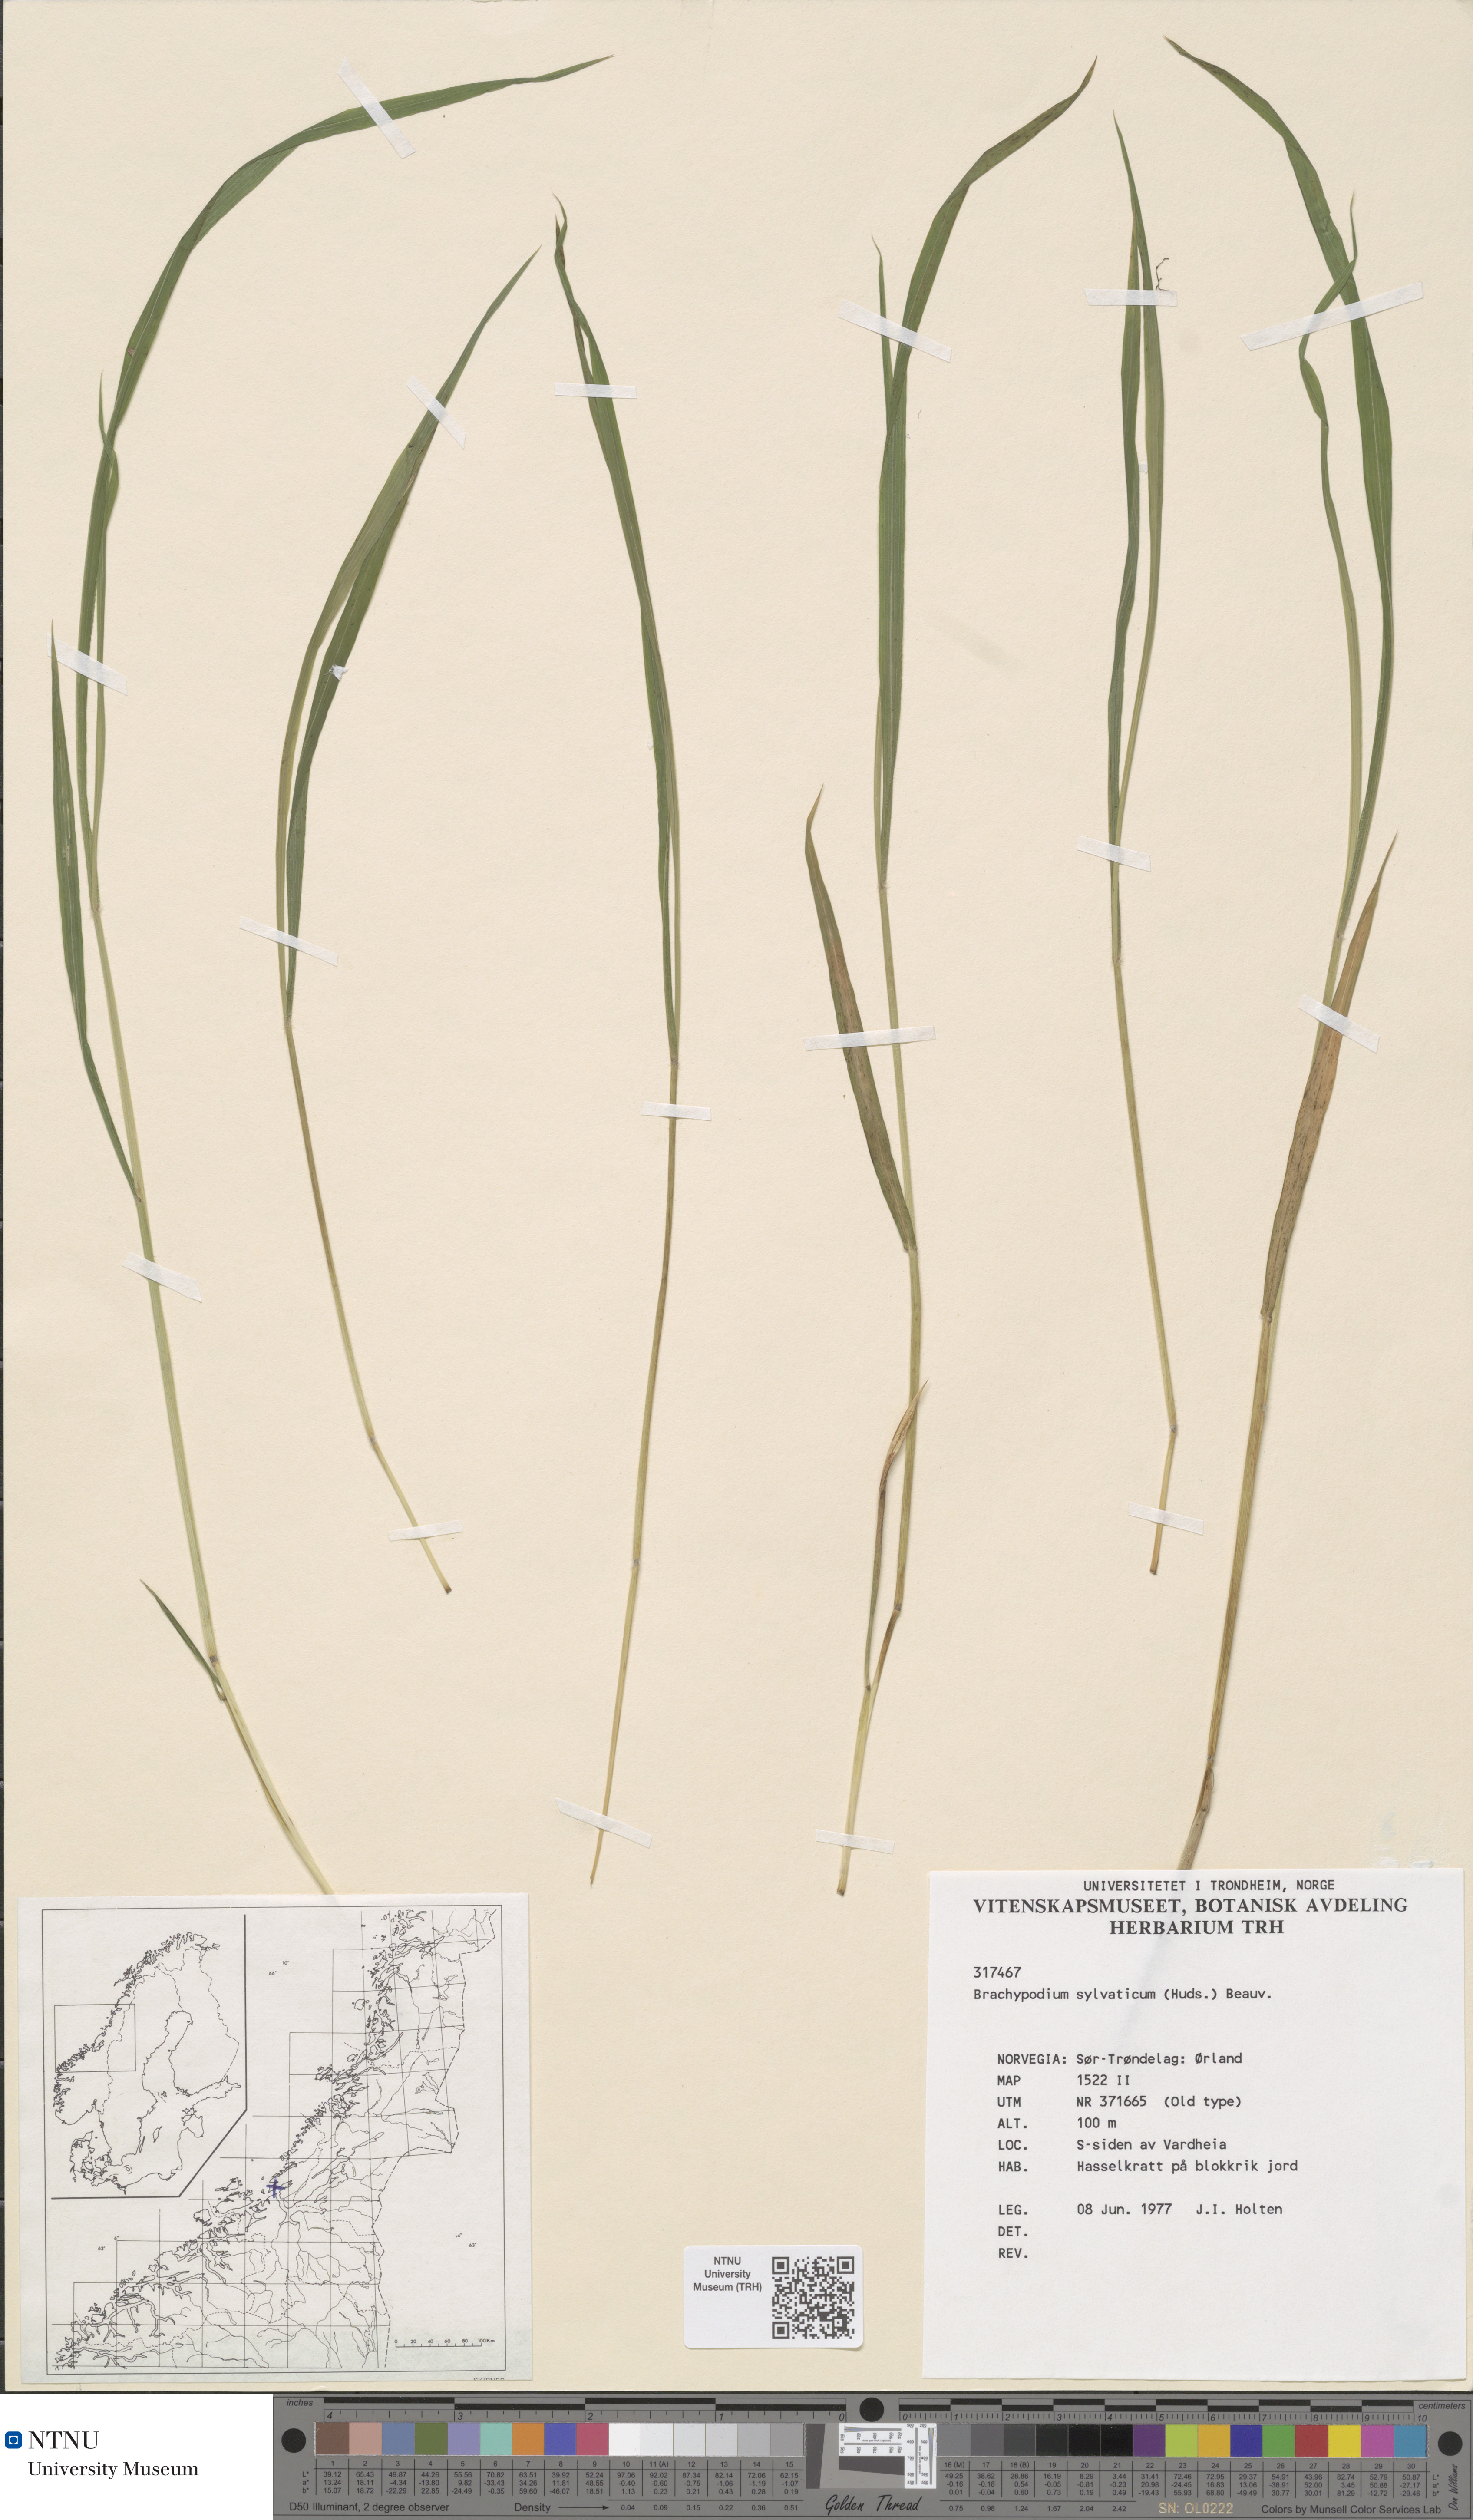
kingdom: Plantae
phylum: Tracheophyta
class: Liliopsida
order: Poales
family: Poaceae
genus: Brachypodium
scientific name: Brachypodium sylvaticum
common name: False-brome
